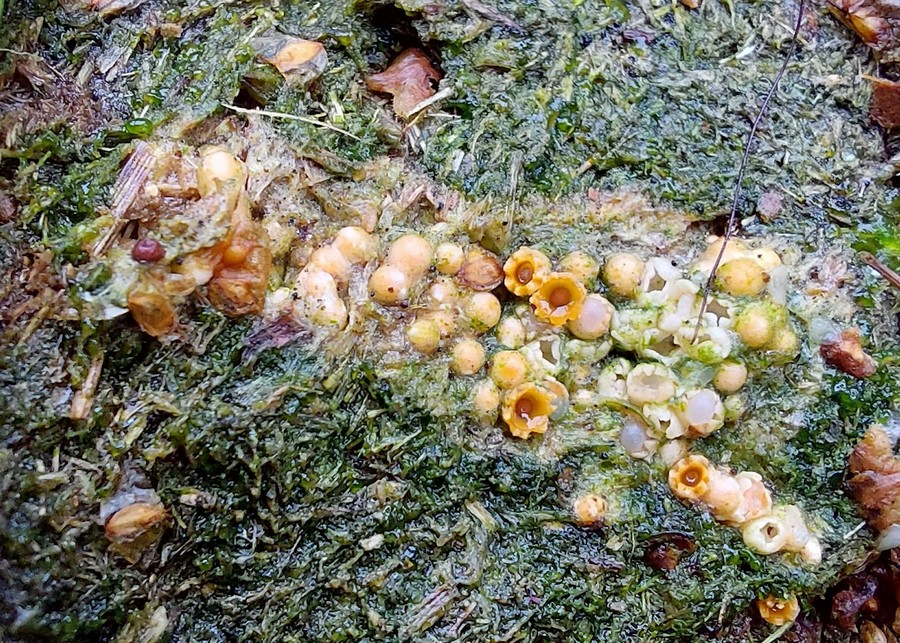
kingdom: Fungi
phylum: Basidiomycota
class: Agaricomycetes
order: Geastrales
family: Geastraceae
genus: Sphaerobolus
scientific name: Sphaerobolus stellatus
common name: bombekaster
